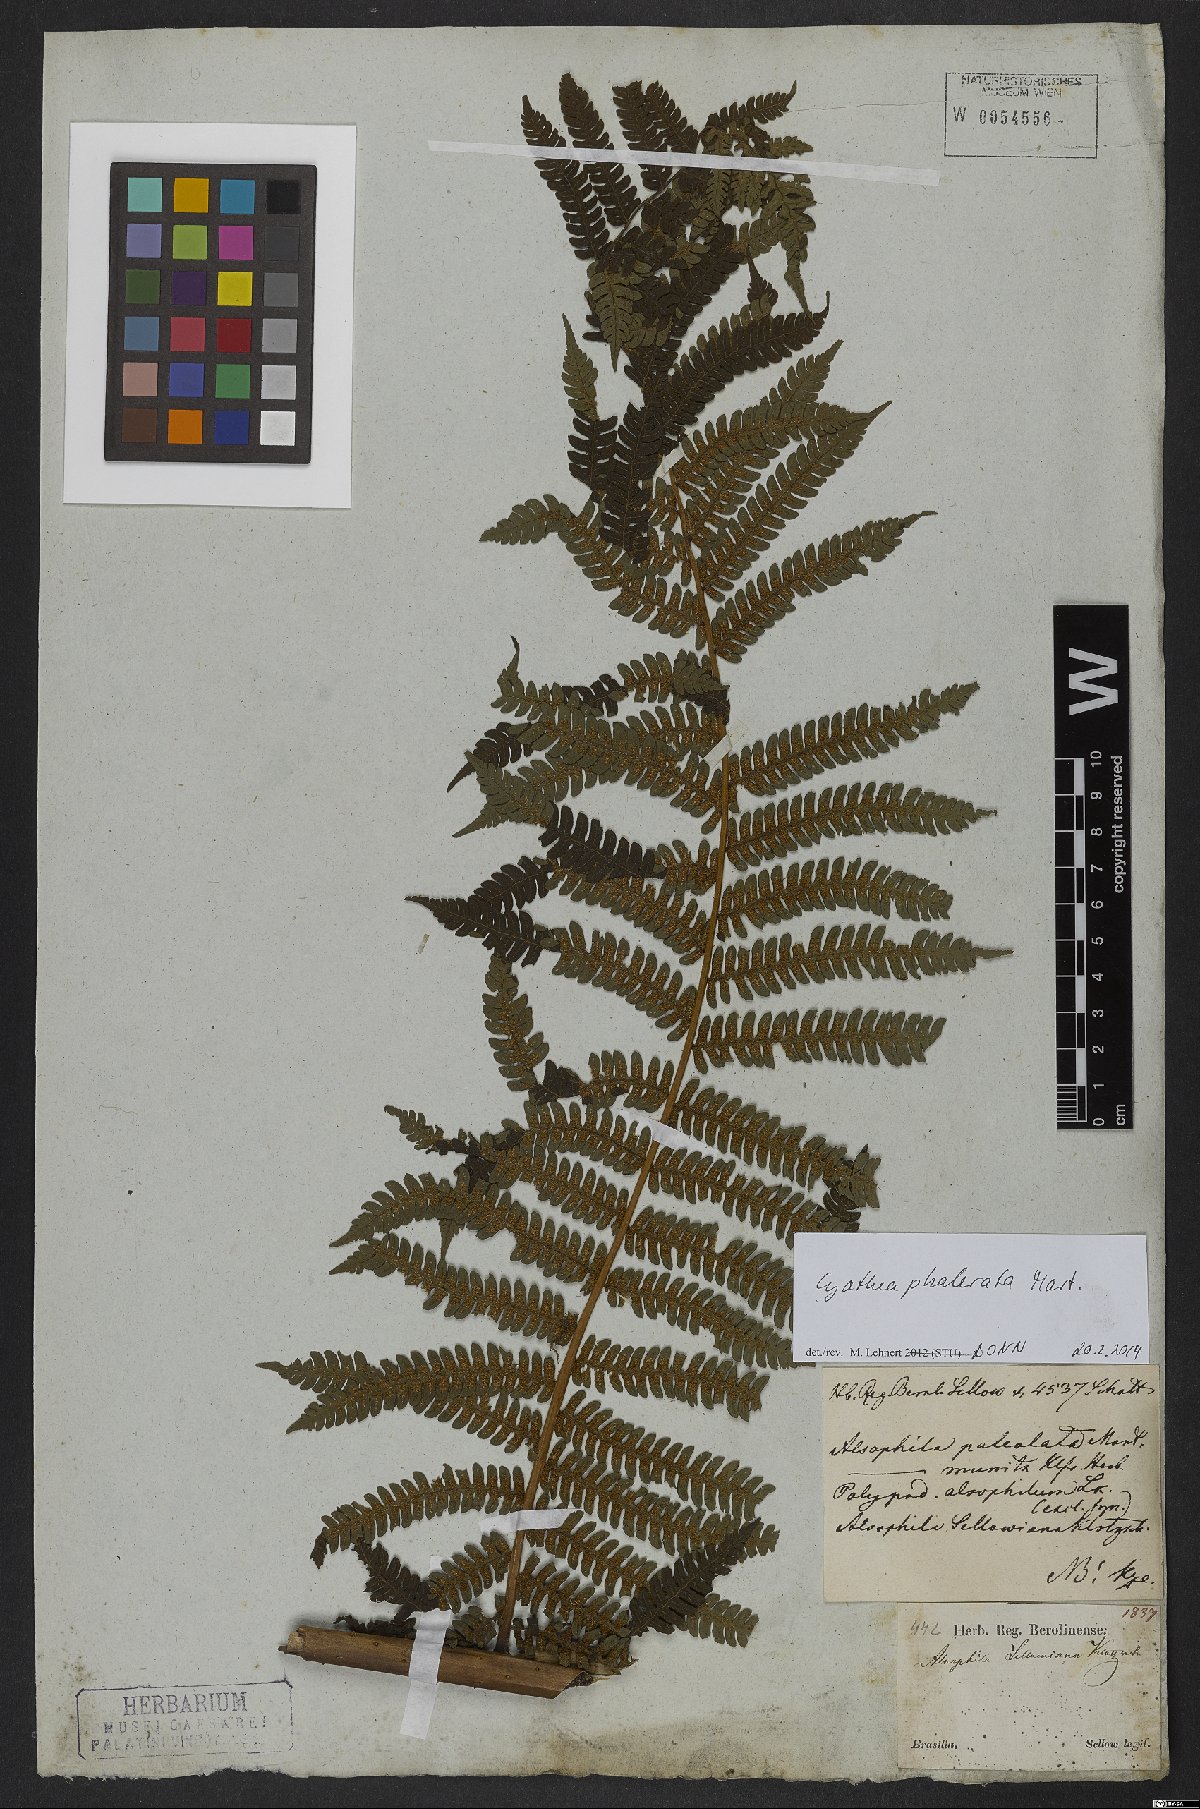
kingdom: Plantae
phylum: Tracheophyta
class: Polypodiopsida
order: Cyatheales
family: Cyatheaceae
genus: Cyathea
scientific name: Cyathea phalerata
